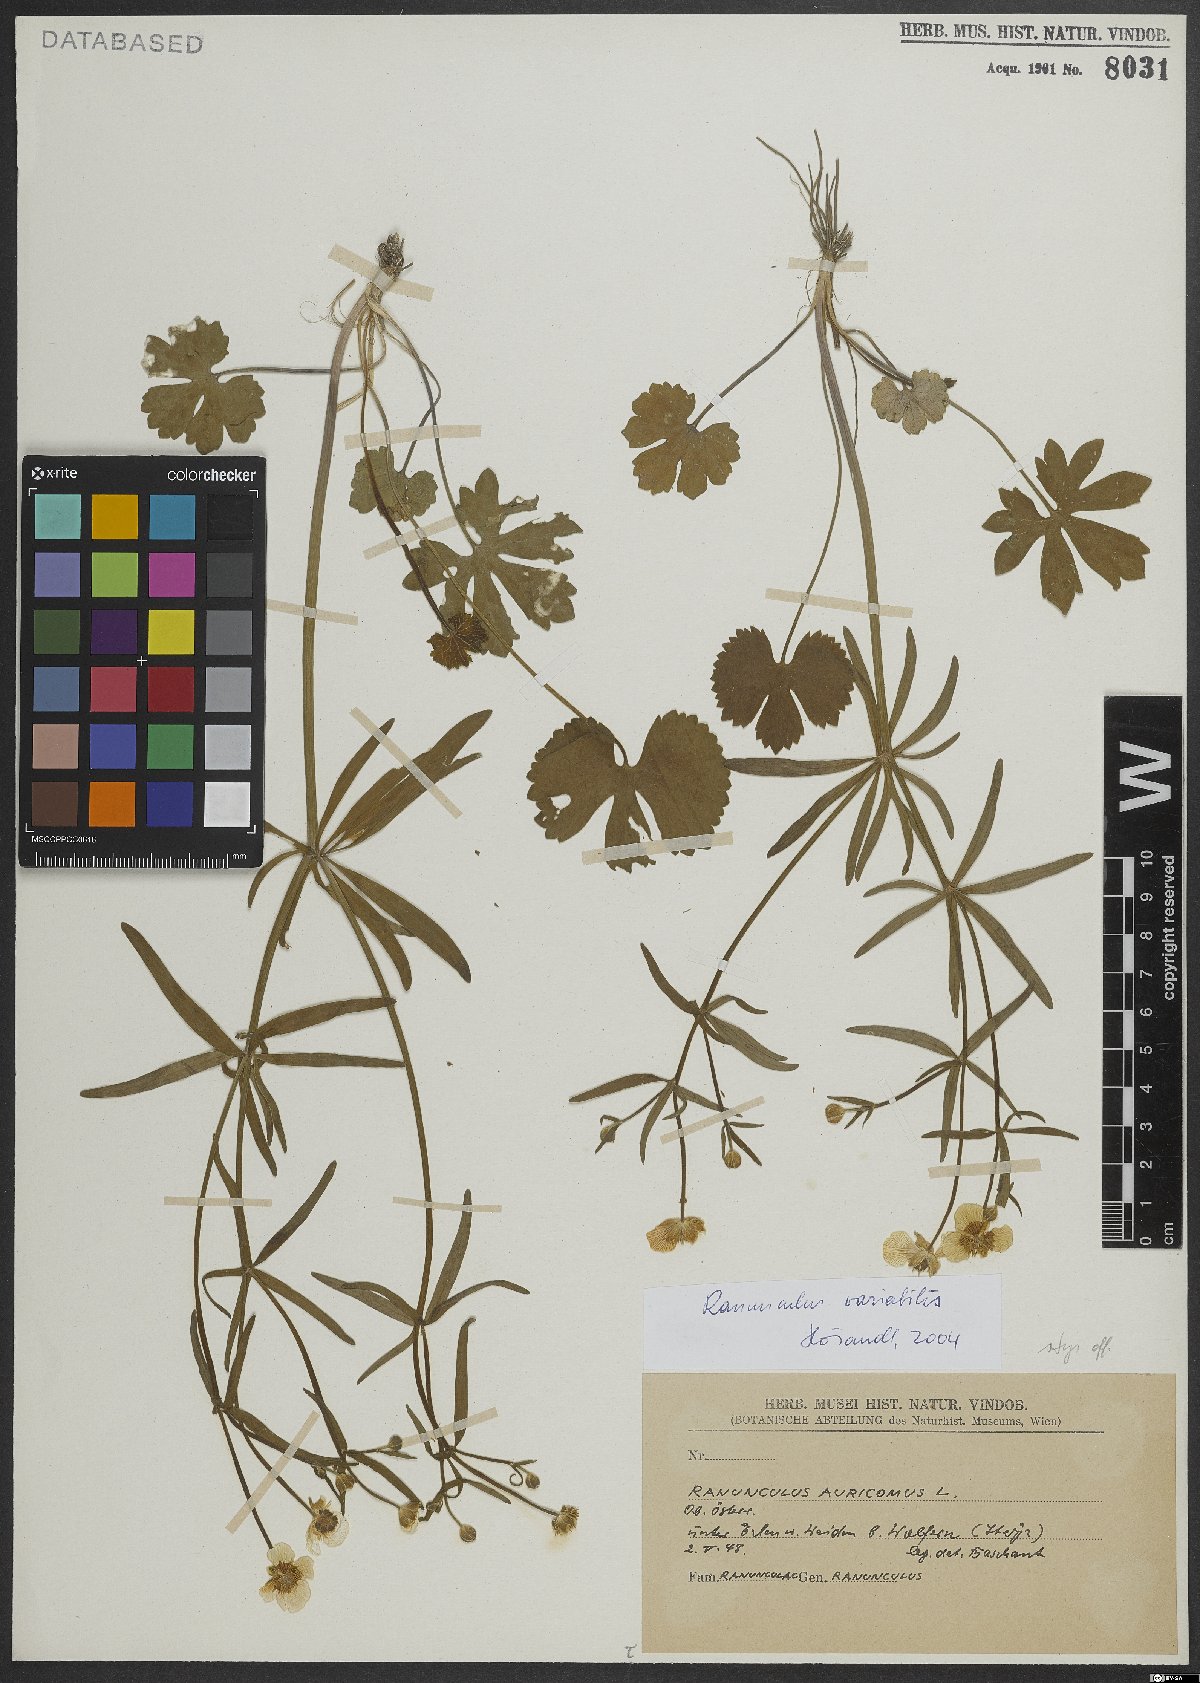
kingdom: Plantae
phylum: Tracheophyta
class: Magnoliopsida
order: Ranunculales
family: Ranunculaceae
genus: Ranunculus
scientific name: Ranunculus variabilis
